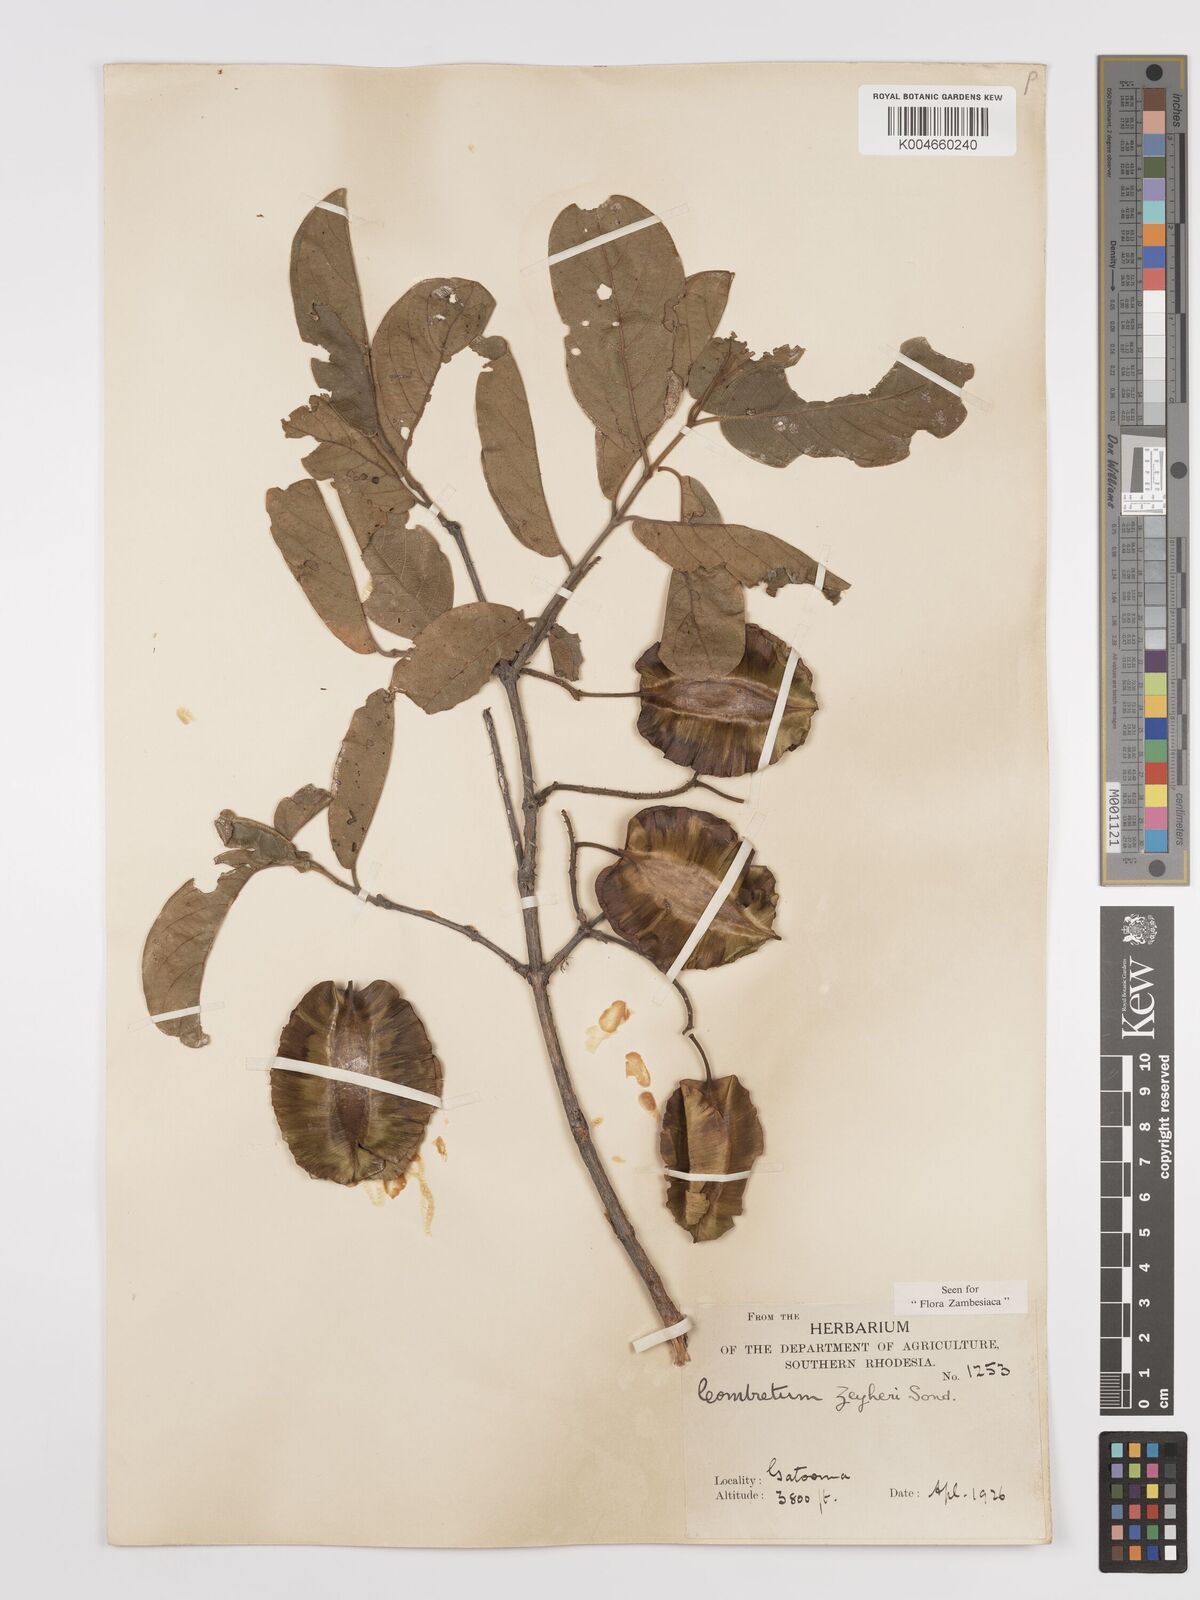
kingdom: Plantae
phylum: Tracheophyta
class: Magnoliopsida
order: Myrtales
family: Combretaceae
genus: Combretum
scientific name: Combretum zeyheri
